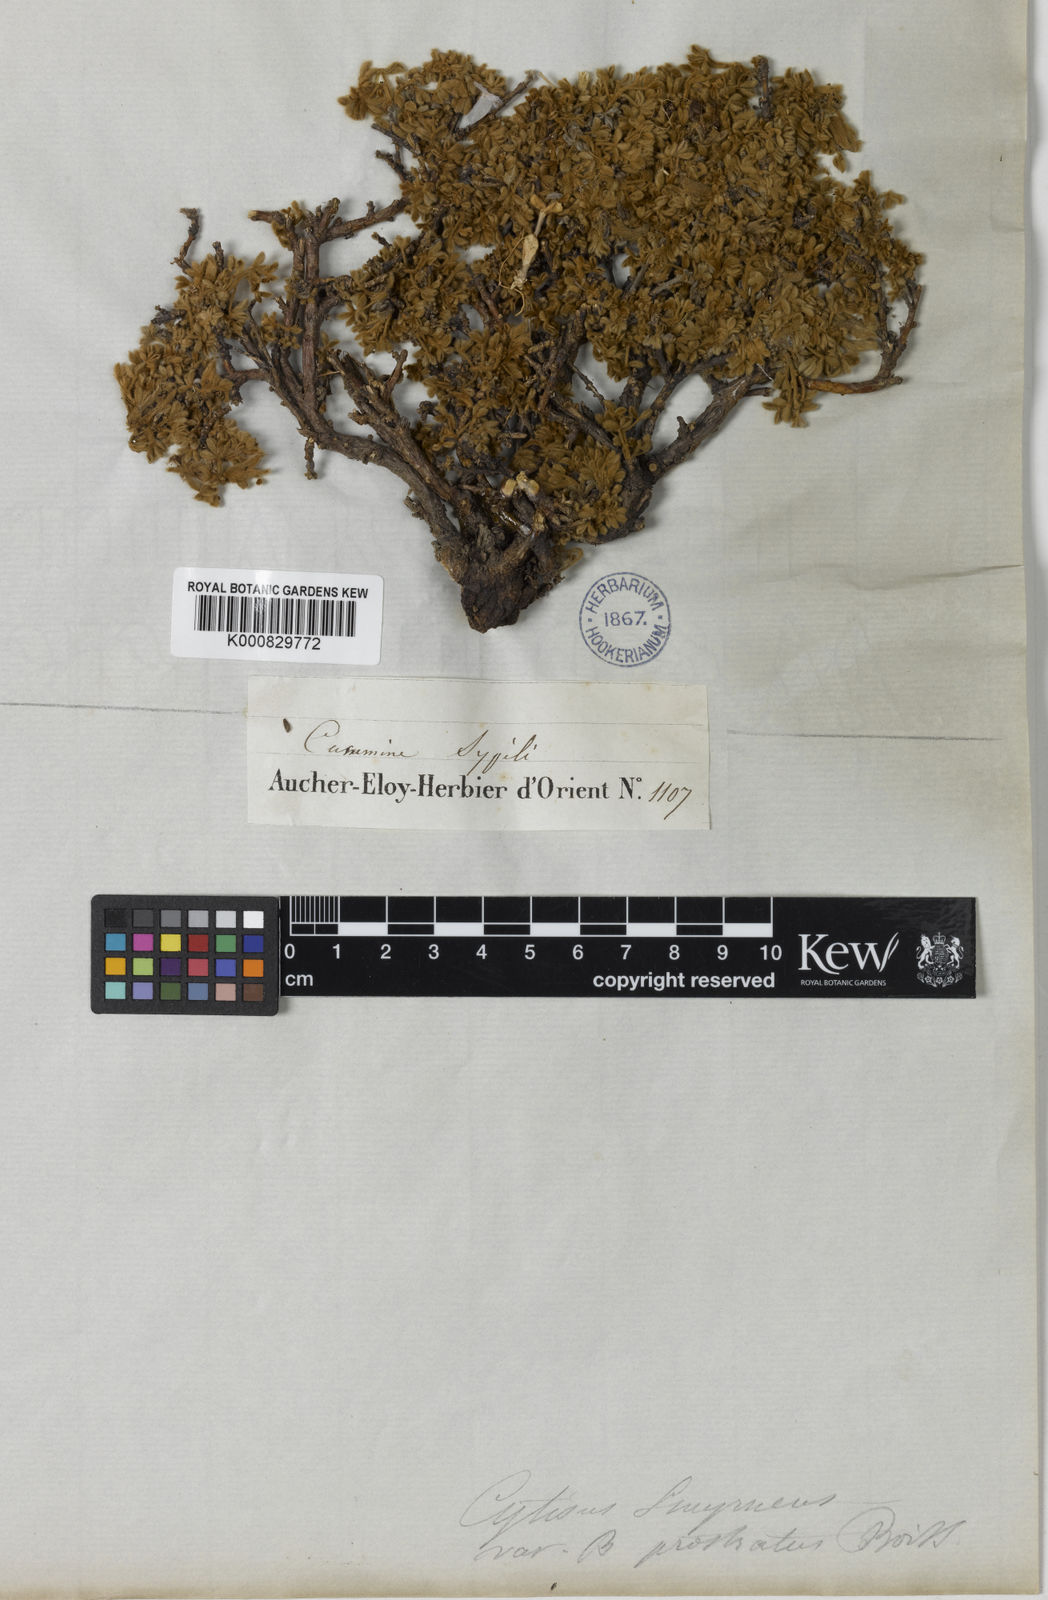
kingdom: Plantae
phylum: Tracheophyta
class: Magnoliopsida
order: Fabales
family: Fabaceae
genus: Chamaecytisus
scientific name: Chamaecytisus eriocarpus
